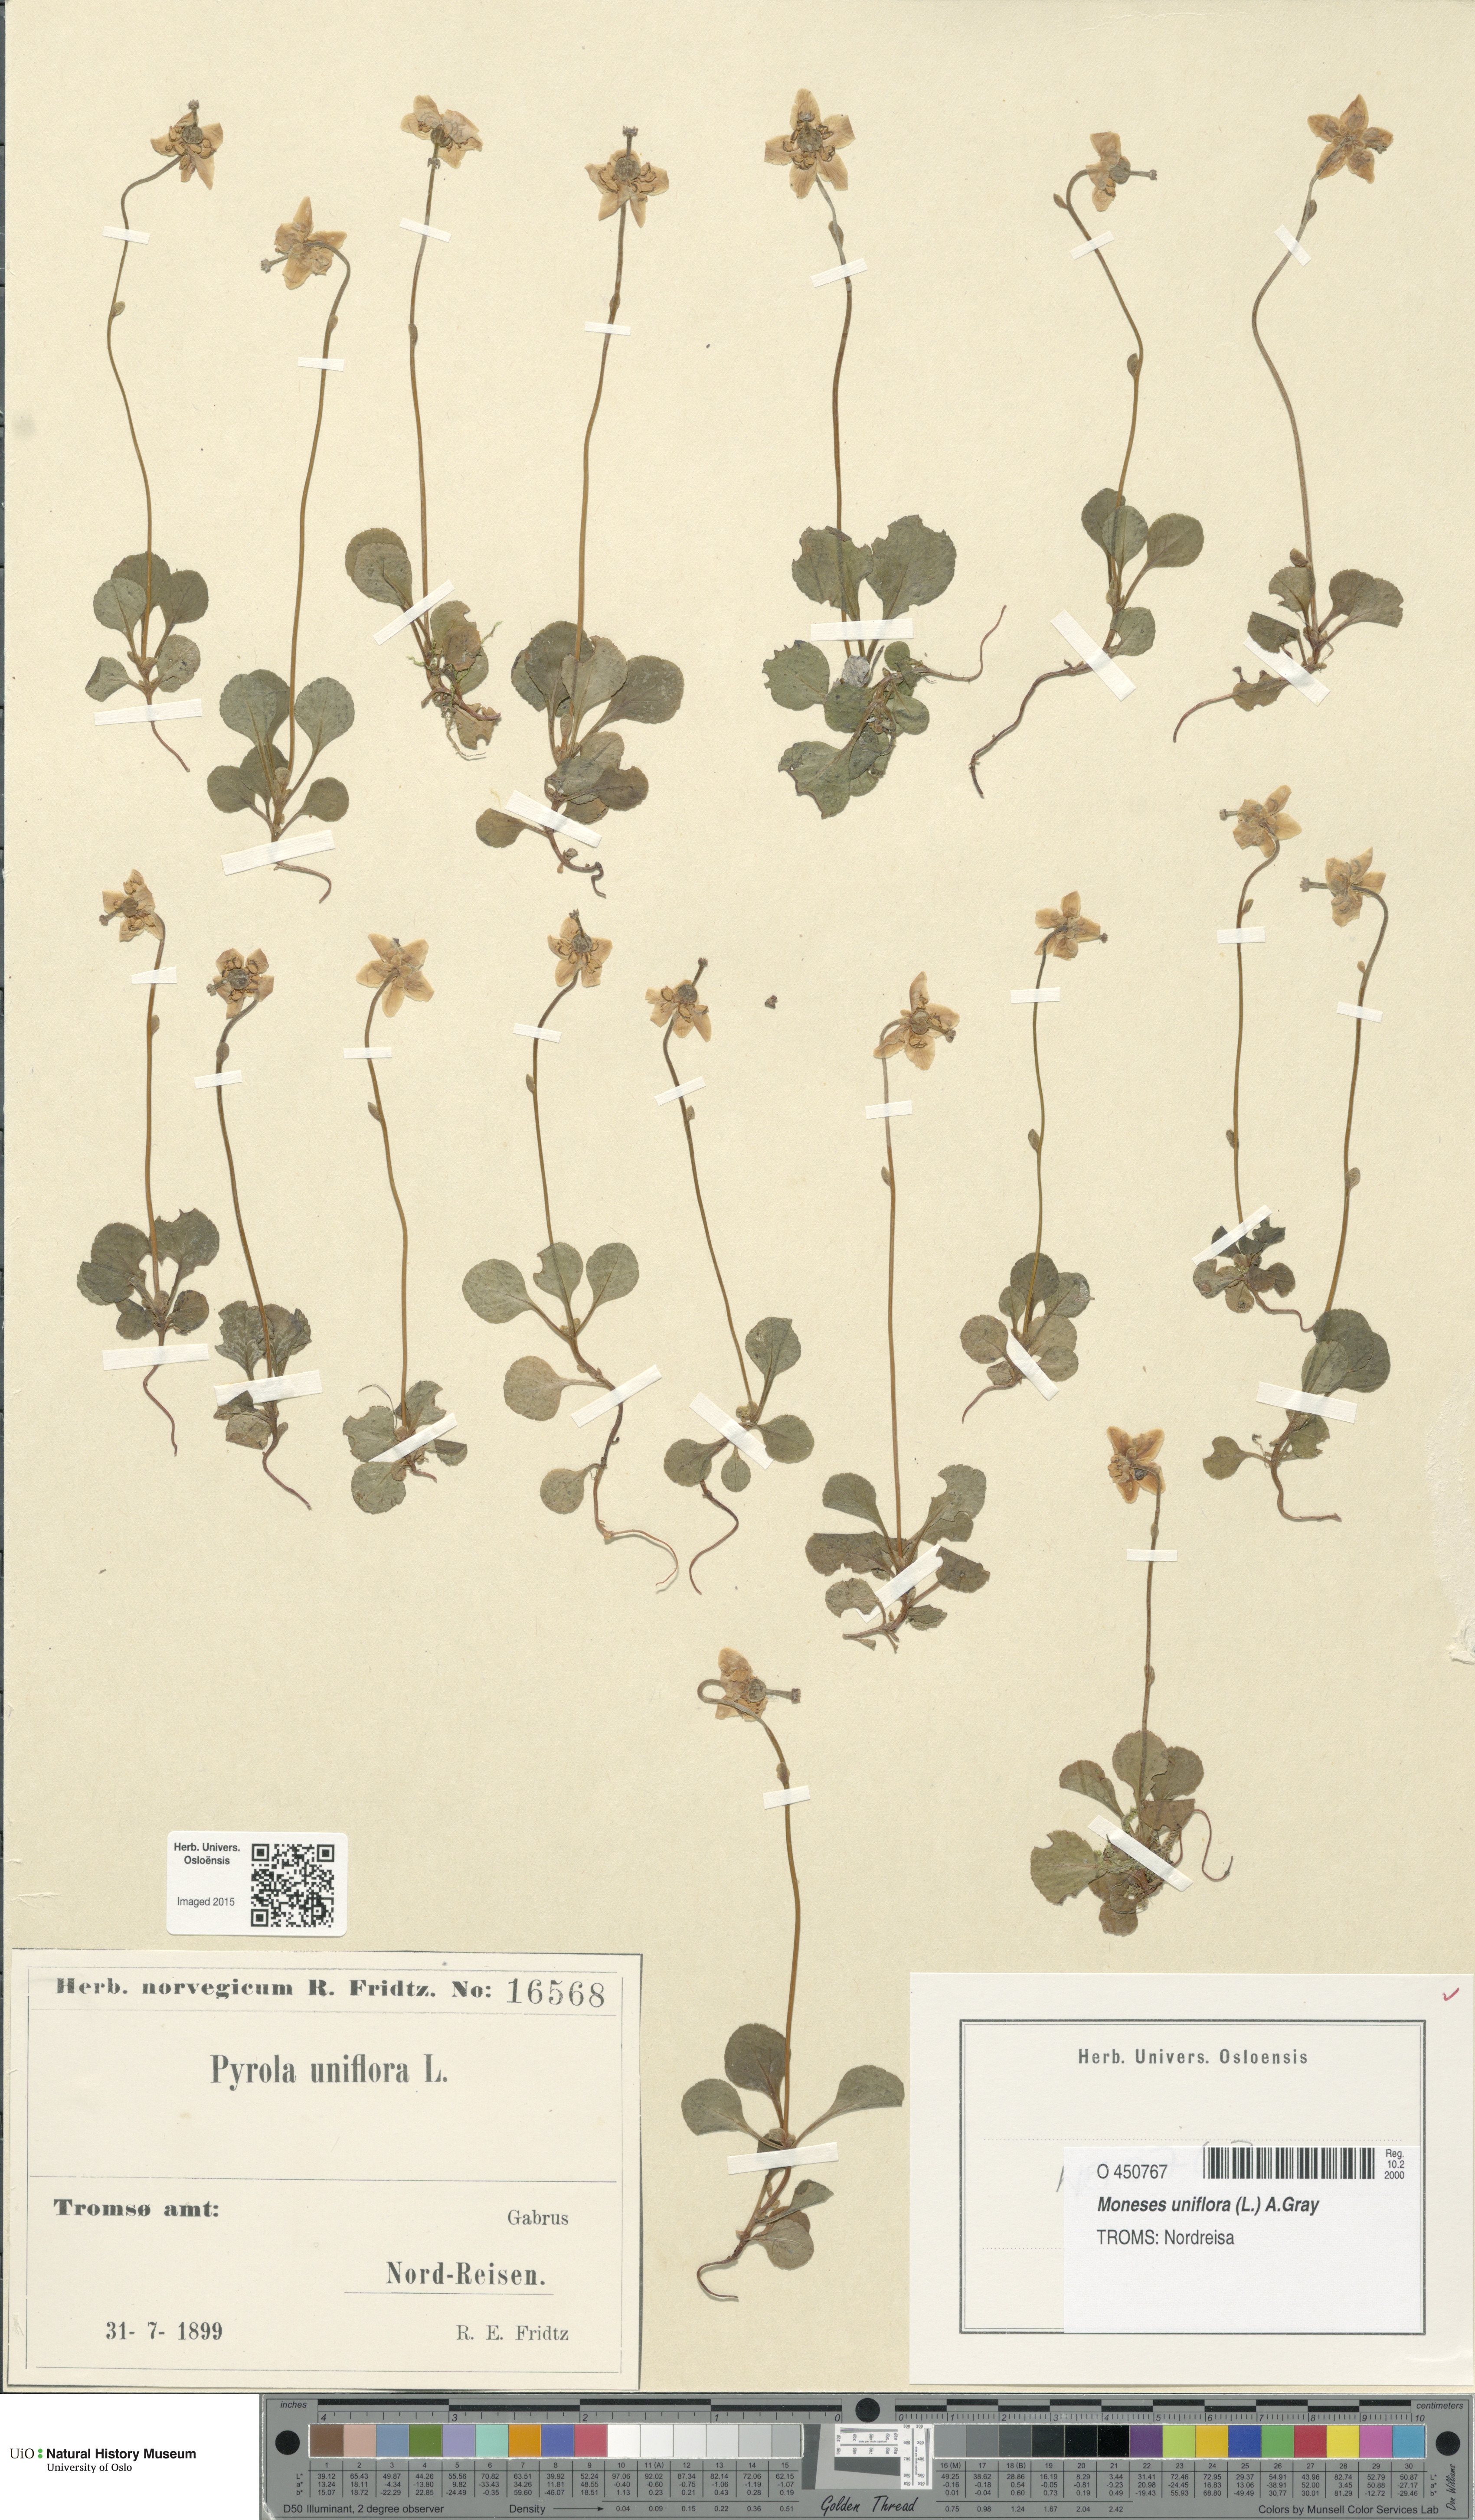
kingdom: Plantae
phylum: Tracheophyta
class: Magnoliopsida
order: Ericales
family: Ericaceae
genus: Moneses
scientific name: Moneses uniflora
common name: One-flowered wintergreen
